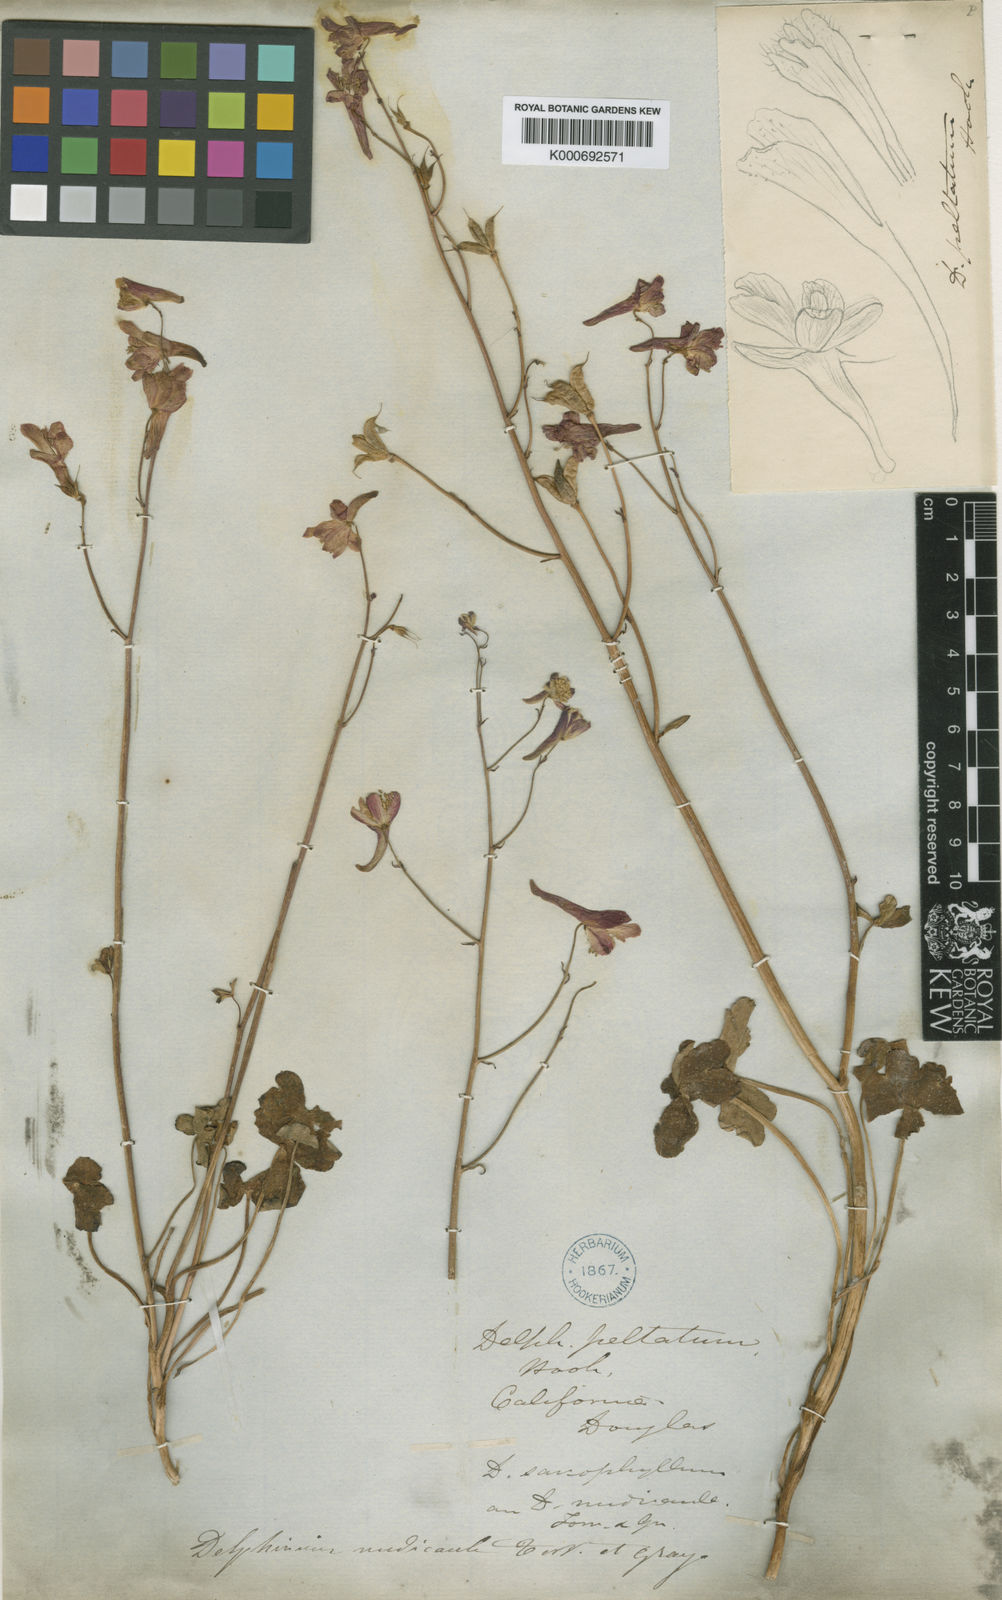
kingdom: Plantae
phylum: Tracheophyta
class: Magnoliopsida
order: Ranunculales
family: Ranunculaceae
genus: Delphinium
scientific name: Delphinium nudicaule
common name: Red larkspur
